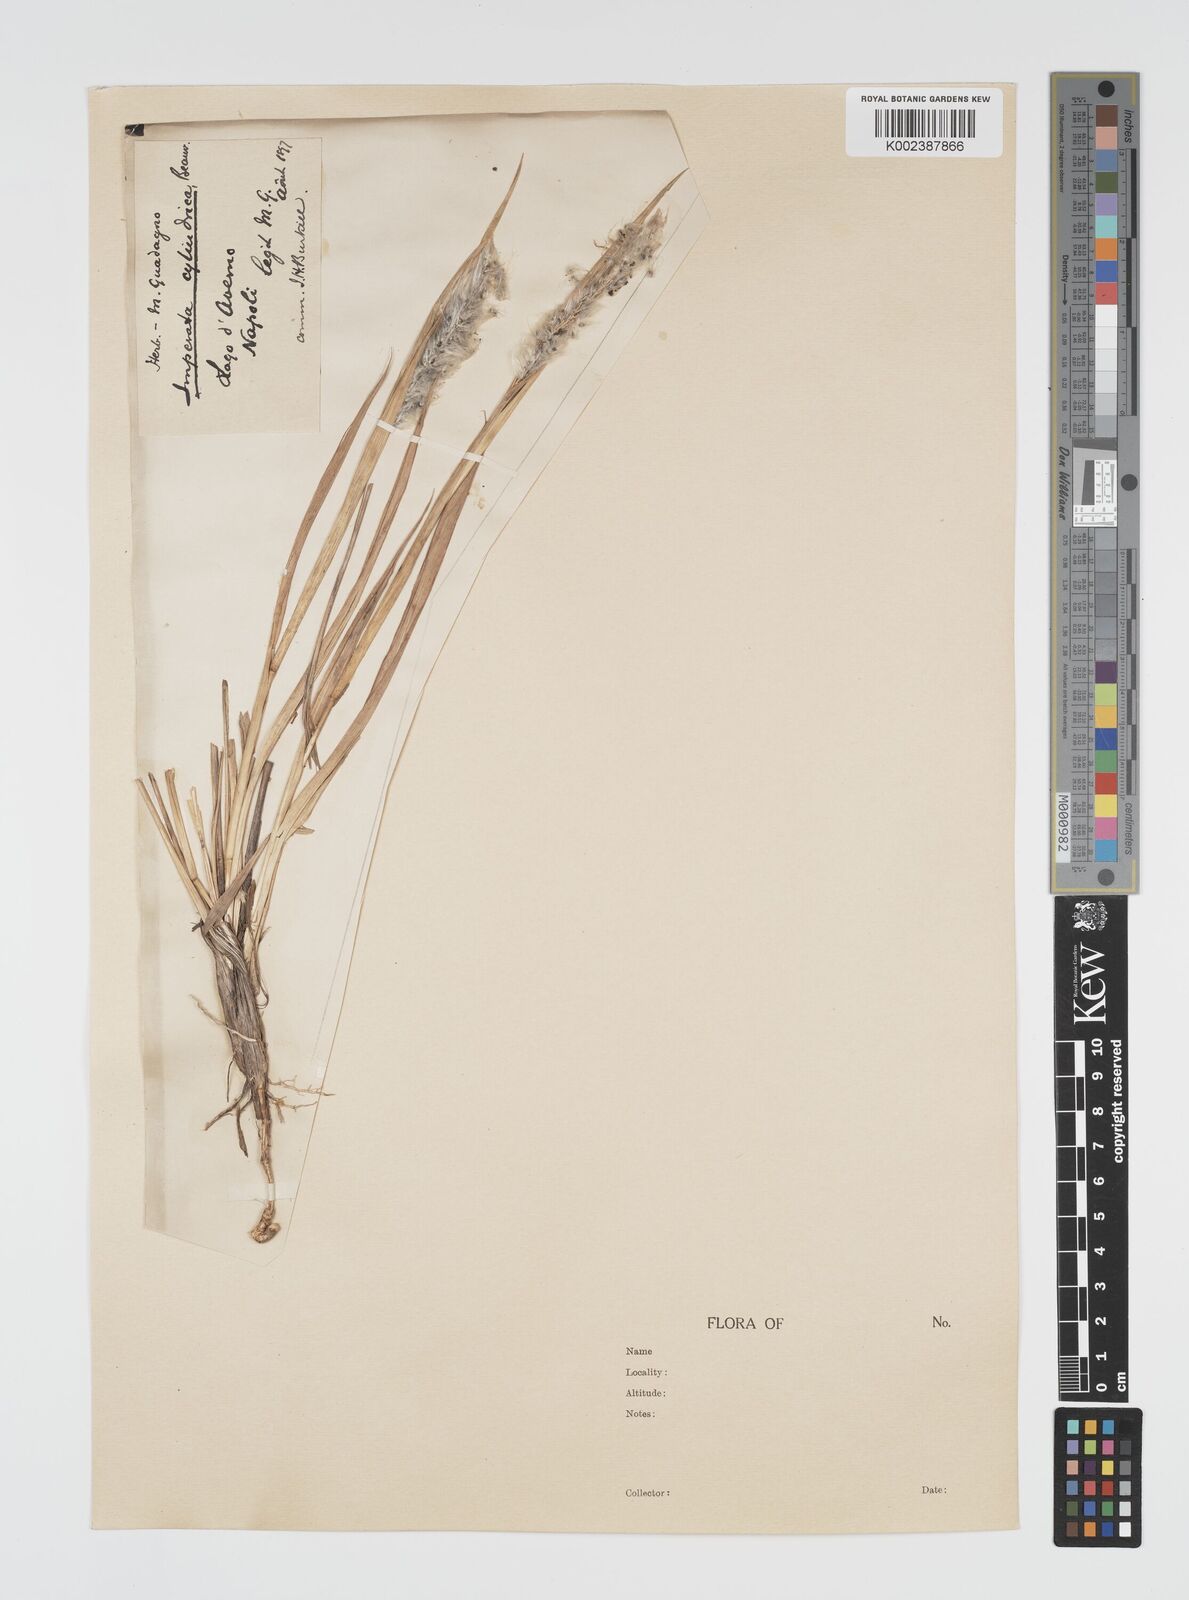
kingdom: Plantae
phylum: Tracheophyta
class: Liliopsida
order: Poales
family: Poaceae
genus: Imperata
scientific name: Imperata cylindrica
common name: Cogongrass
